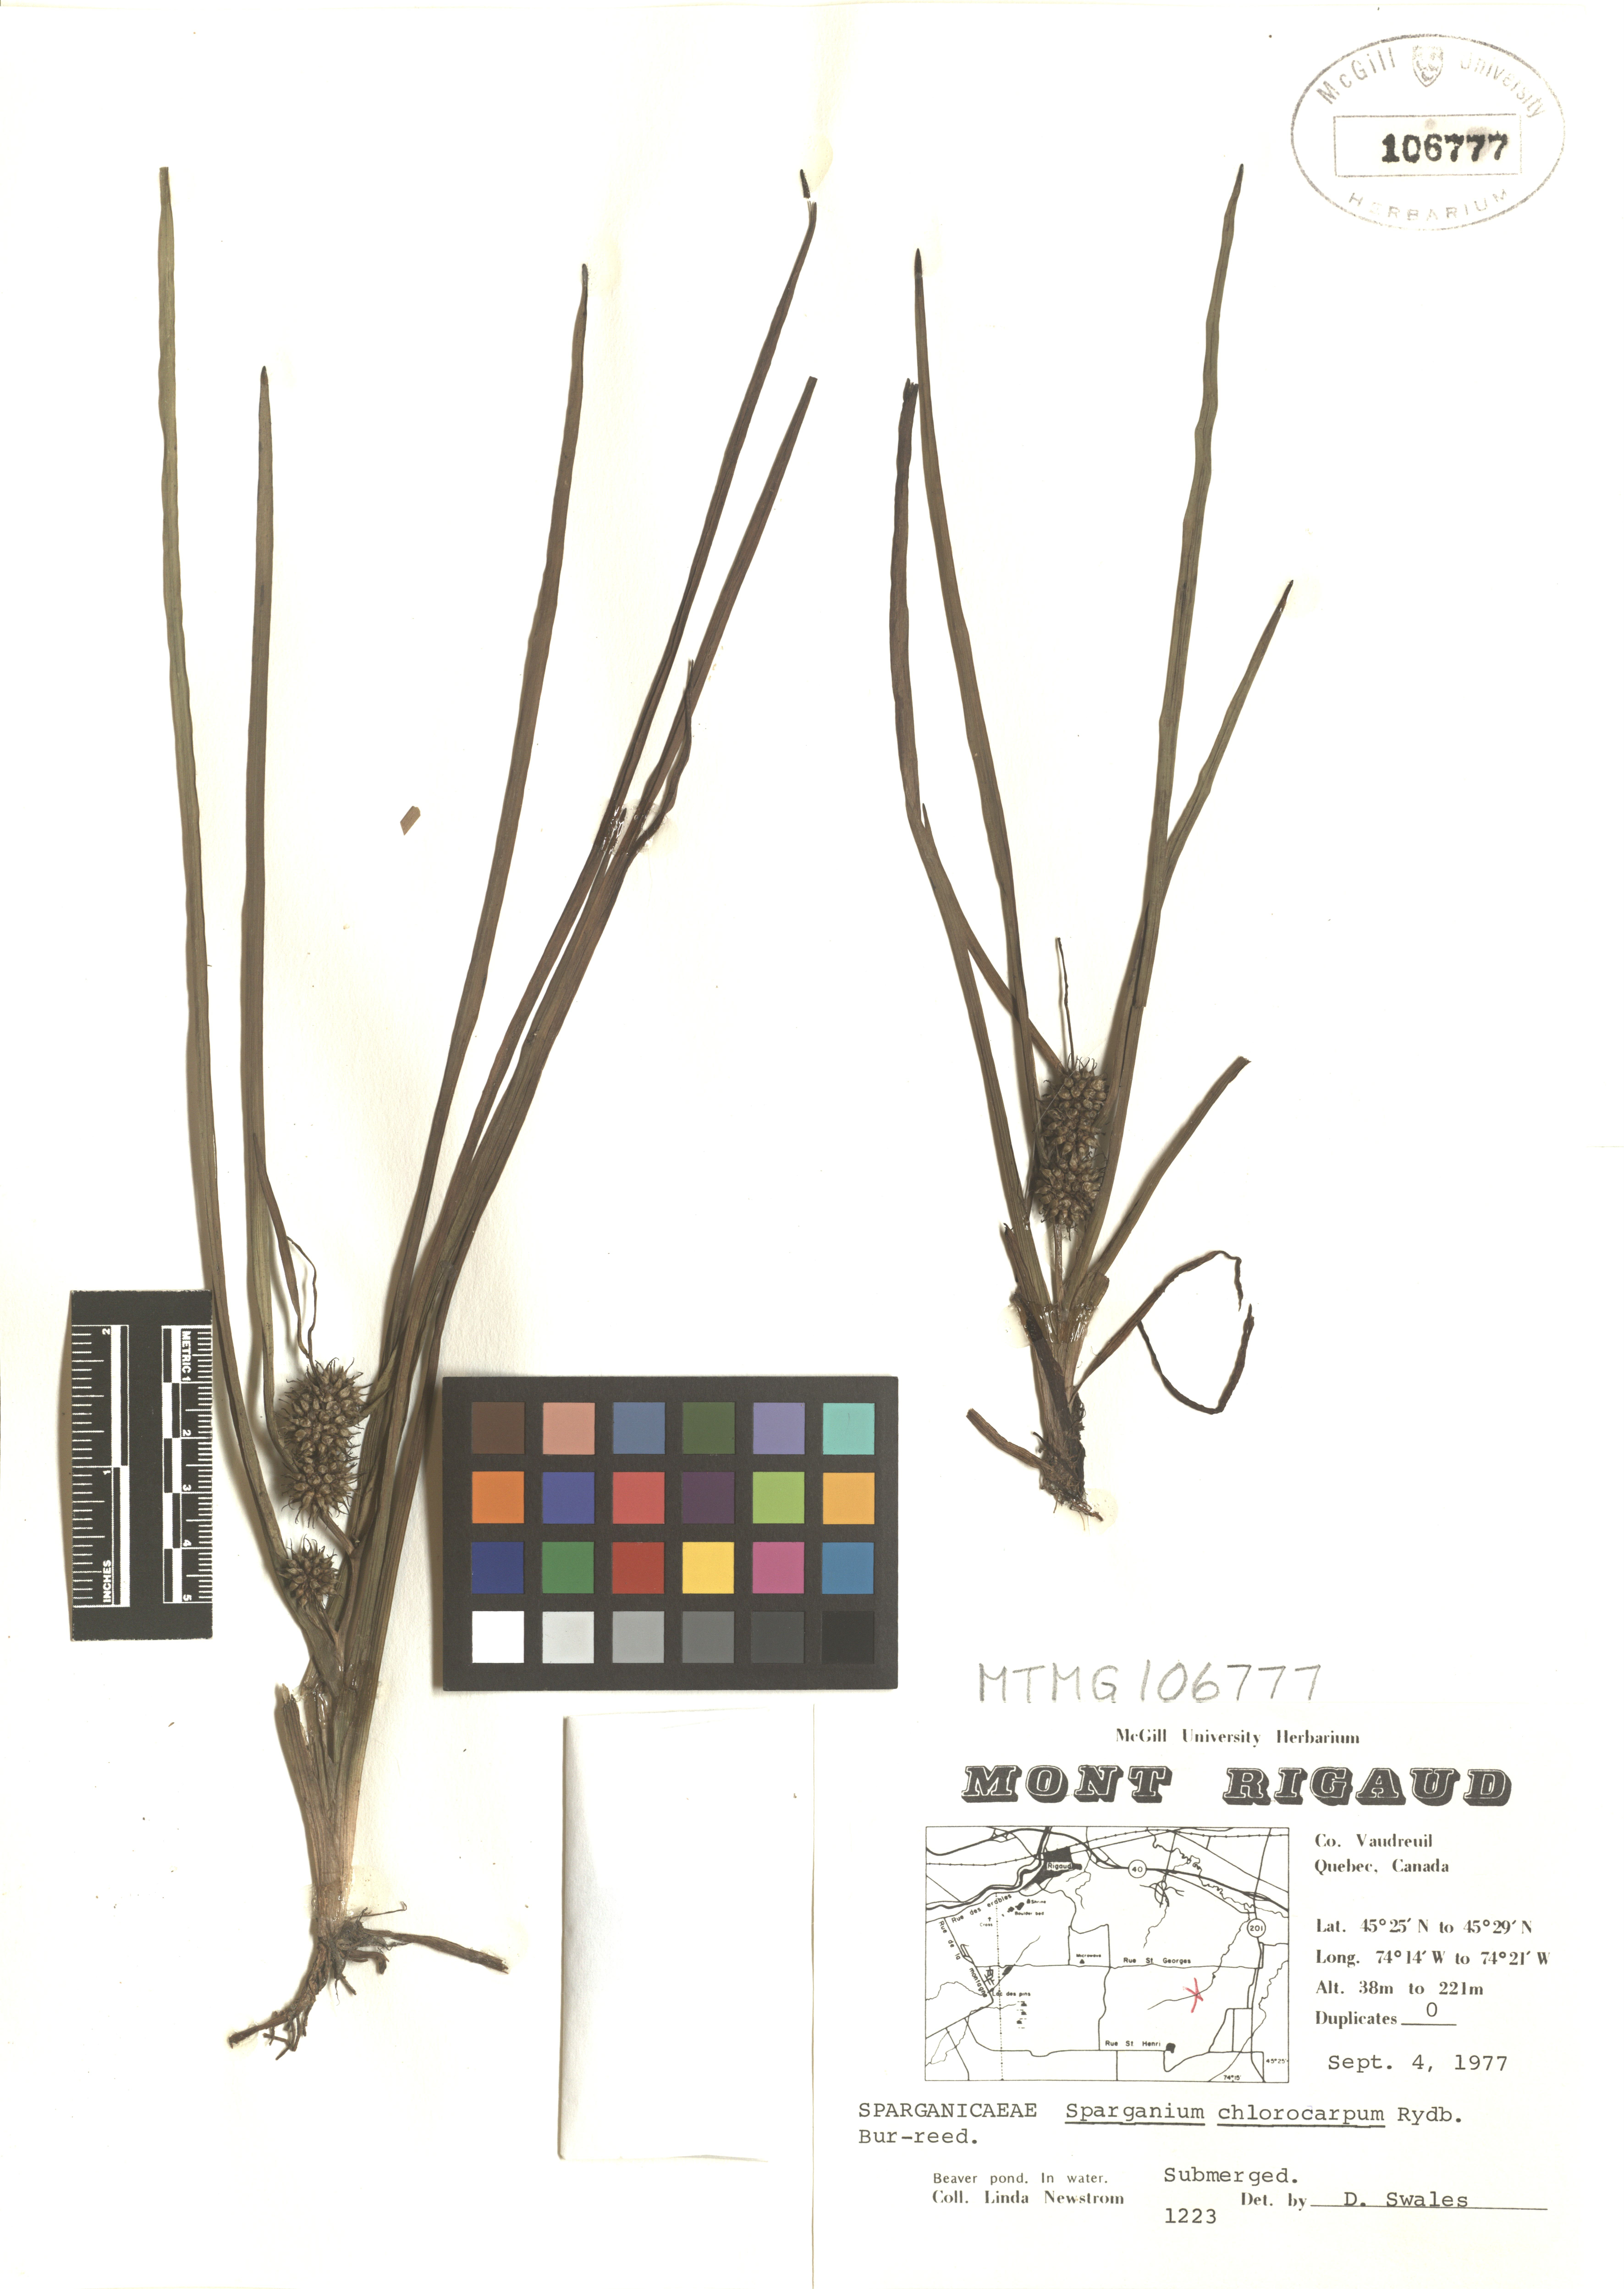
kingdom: Plantae
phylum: Tracheophyta
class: Liliopsida
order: Poales
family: Typhaceae
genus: Sparganium
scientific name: Sparganium emersum
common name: Unbranched bur-reed
